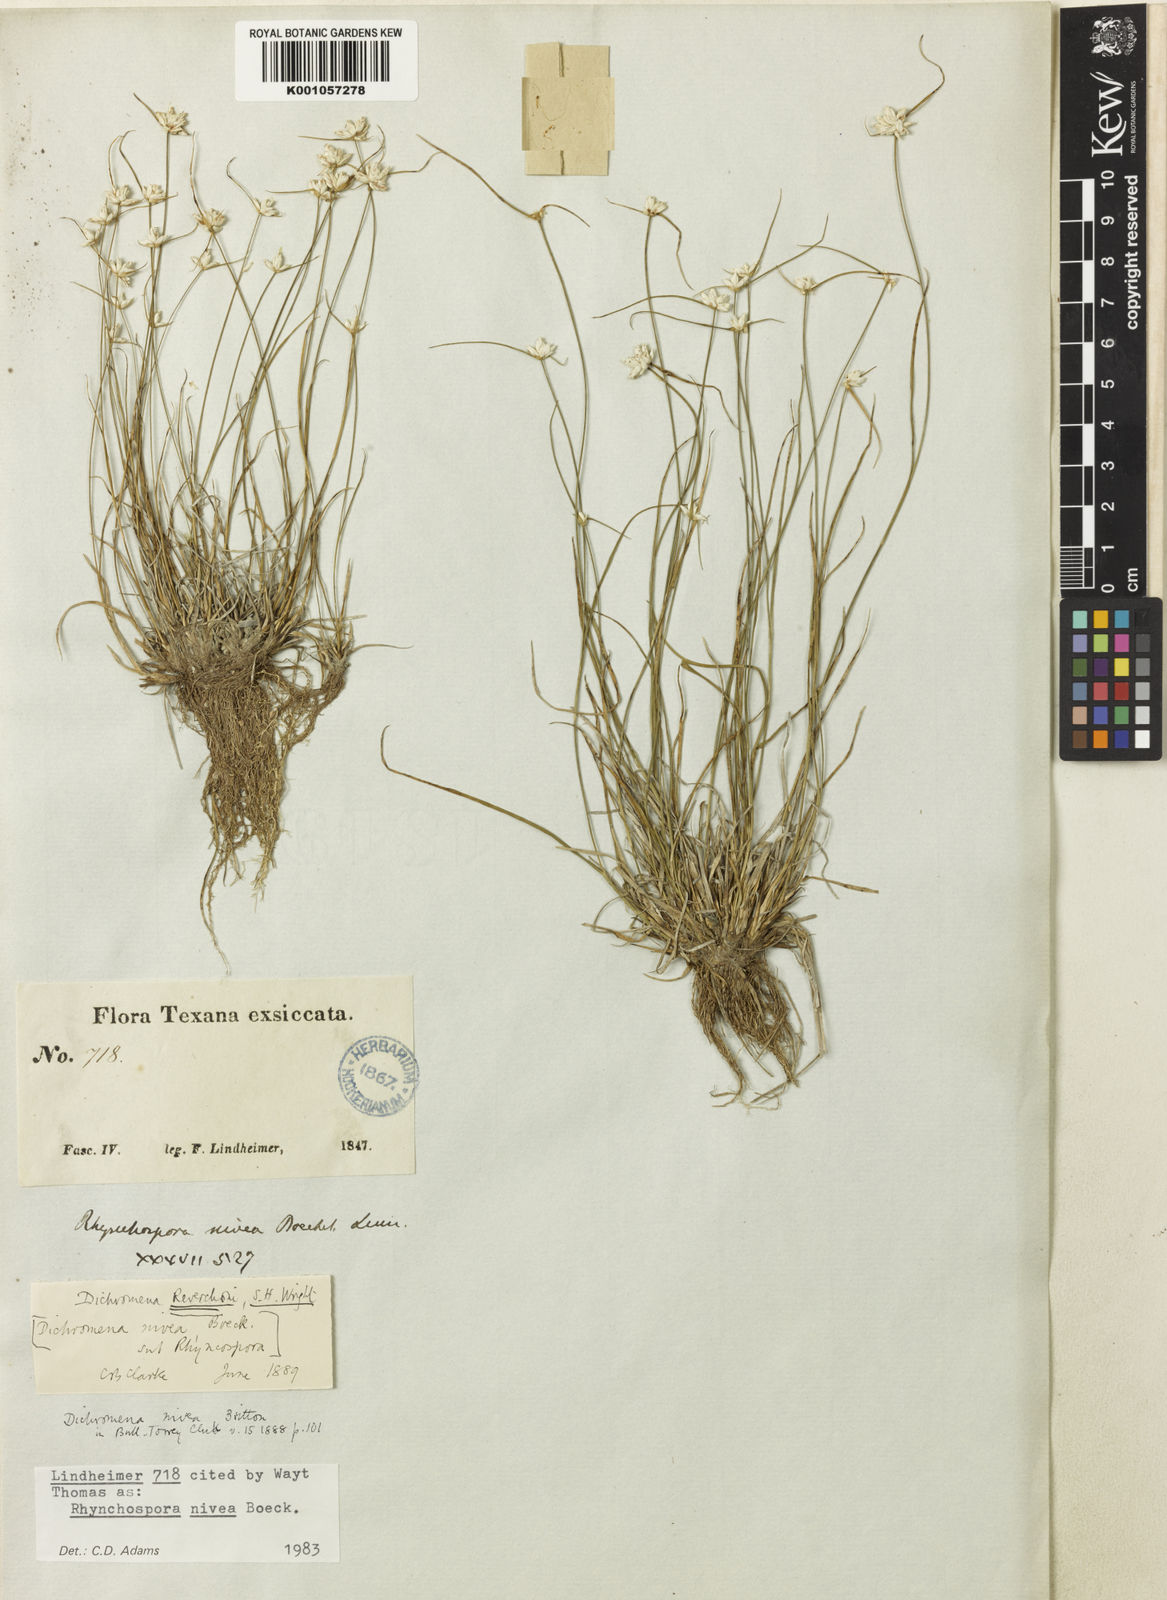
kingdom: Plantae
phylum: Tracheophyta
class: Liliopsida
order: Poales
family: Cyperaceae
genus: Rhynchospora
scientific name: Rhynchospora nivea
